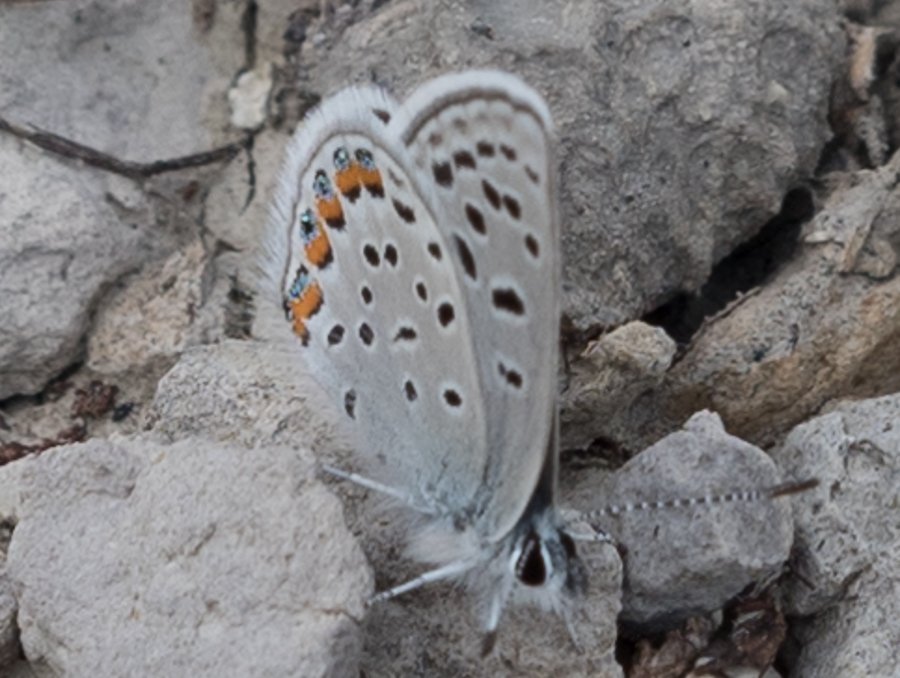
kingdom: Animalia
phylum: Arthropoda
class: Insecta
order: Lepidoptera
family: Lycaenidae
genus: Plebejus
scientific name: Plebejus lupini
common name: Lupine Blue
